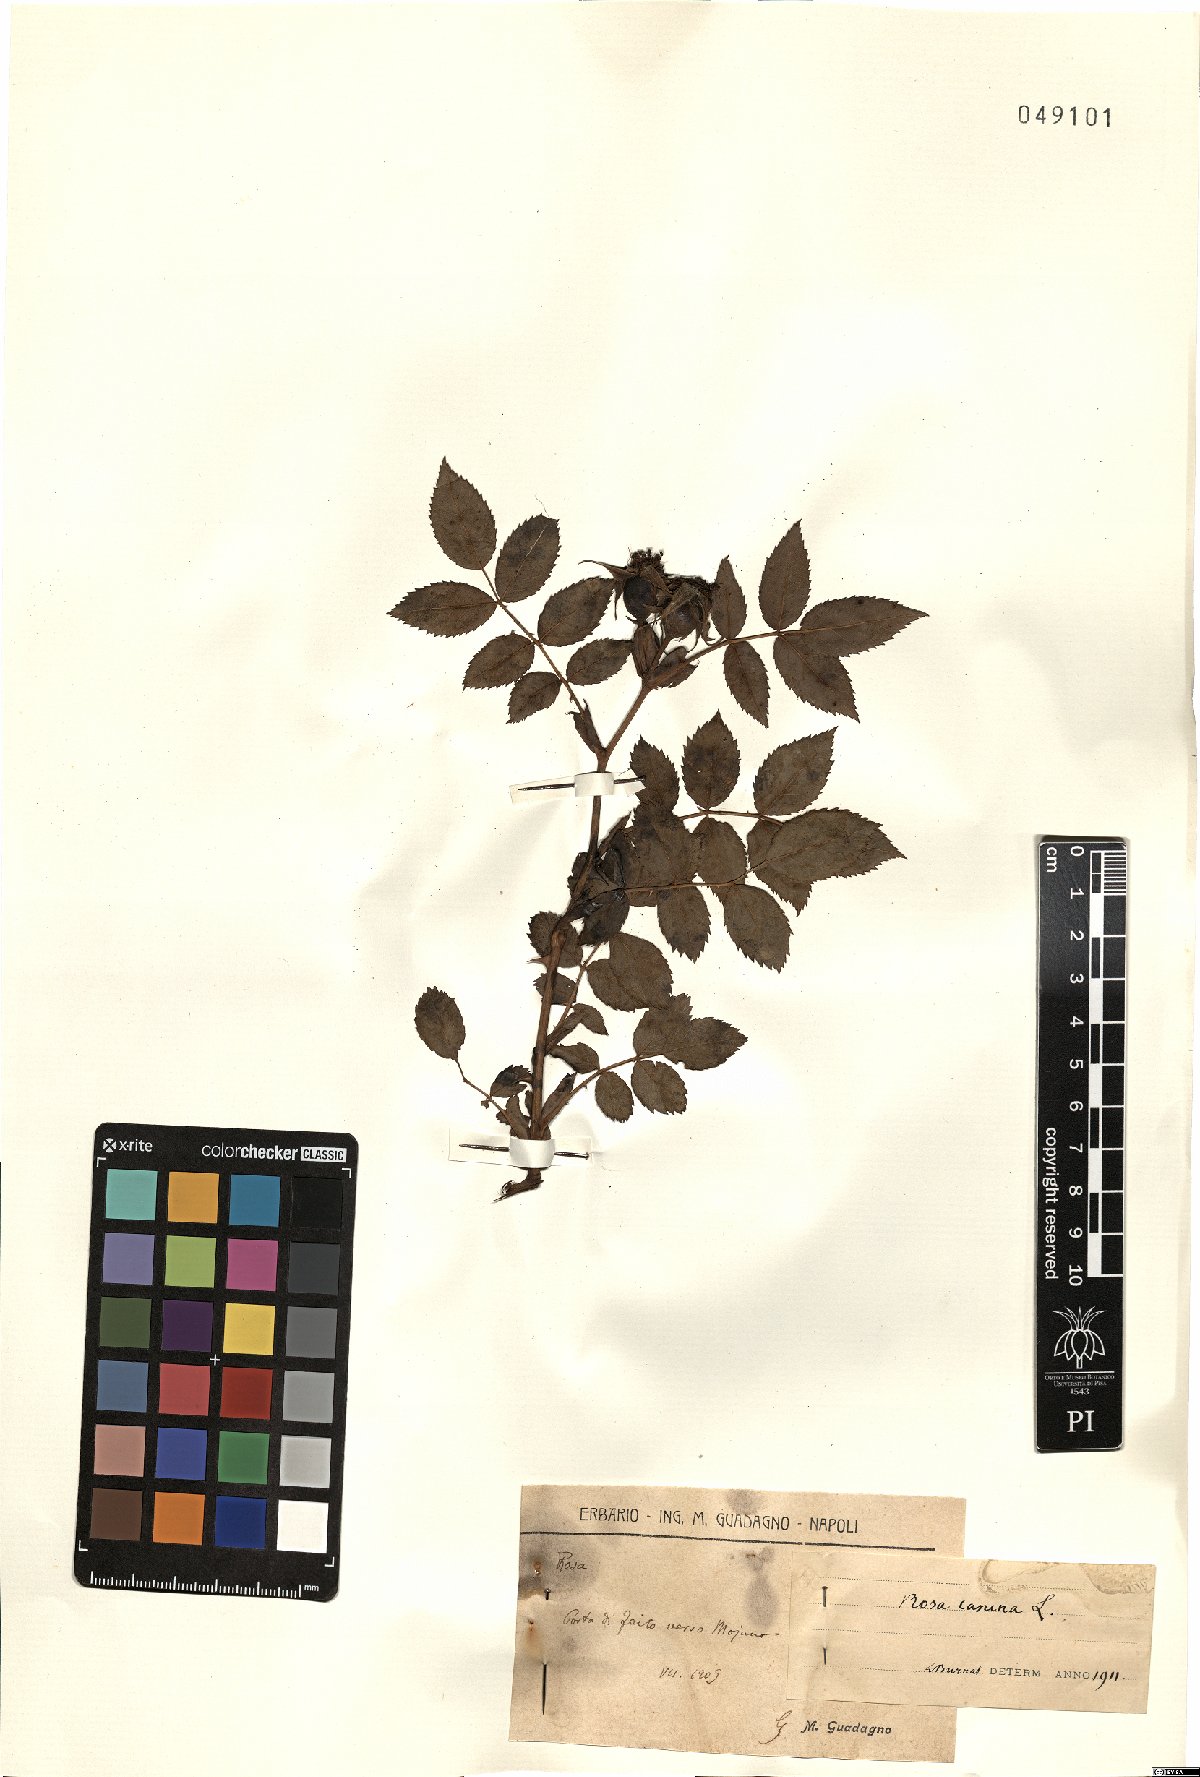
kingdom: Plantae
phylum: Tracheophyta
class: Magnoliopsida
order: Rosales
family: Rosaceae
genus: Rosa
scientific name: Rosa canina
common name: Dog rose
